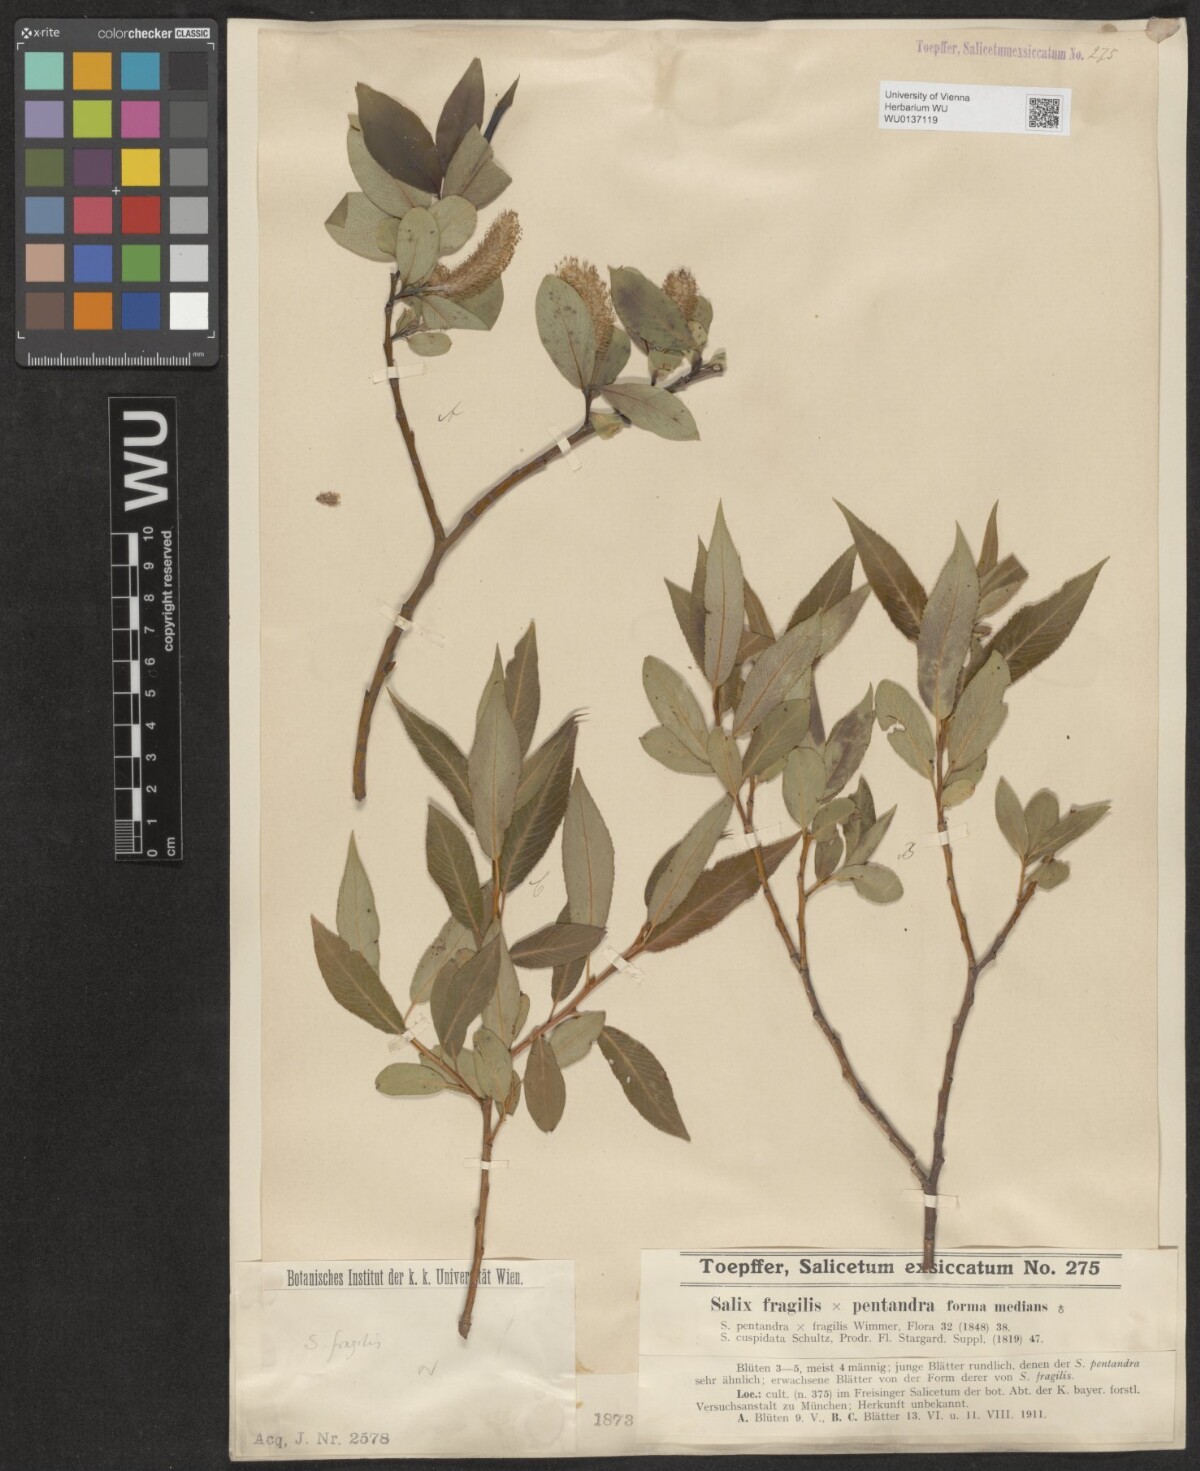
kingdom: Plantae
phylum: Tracheophyta
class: Magnoliopsida
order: Malpighiales
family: Salicaceae
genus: Salix
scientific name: Salix fragilis
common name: Crack willow
